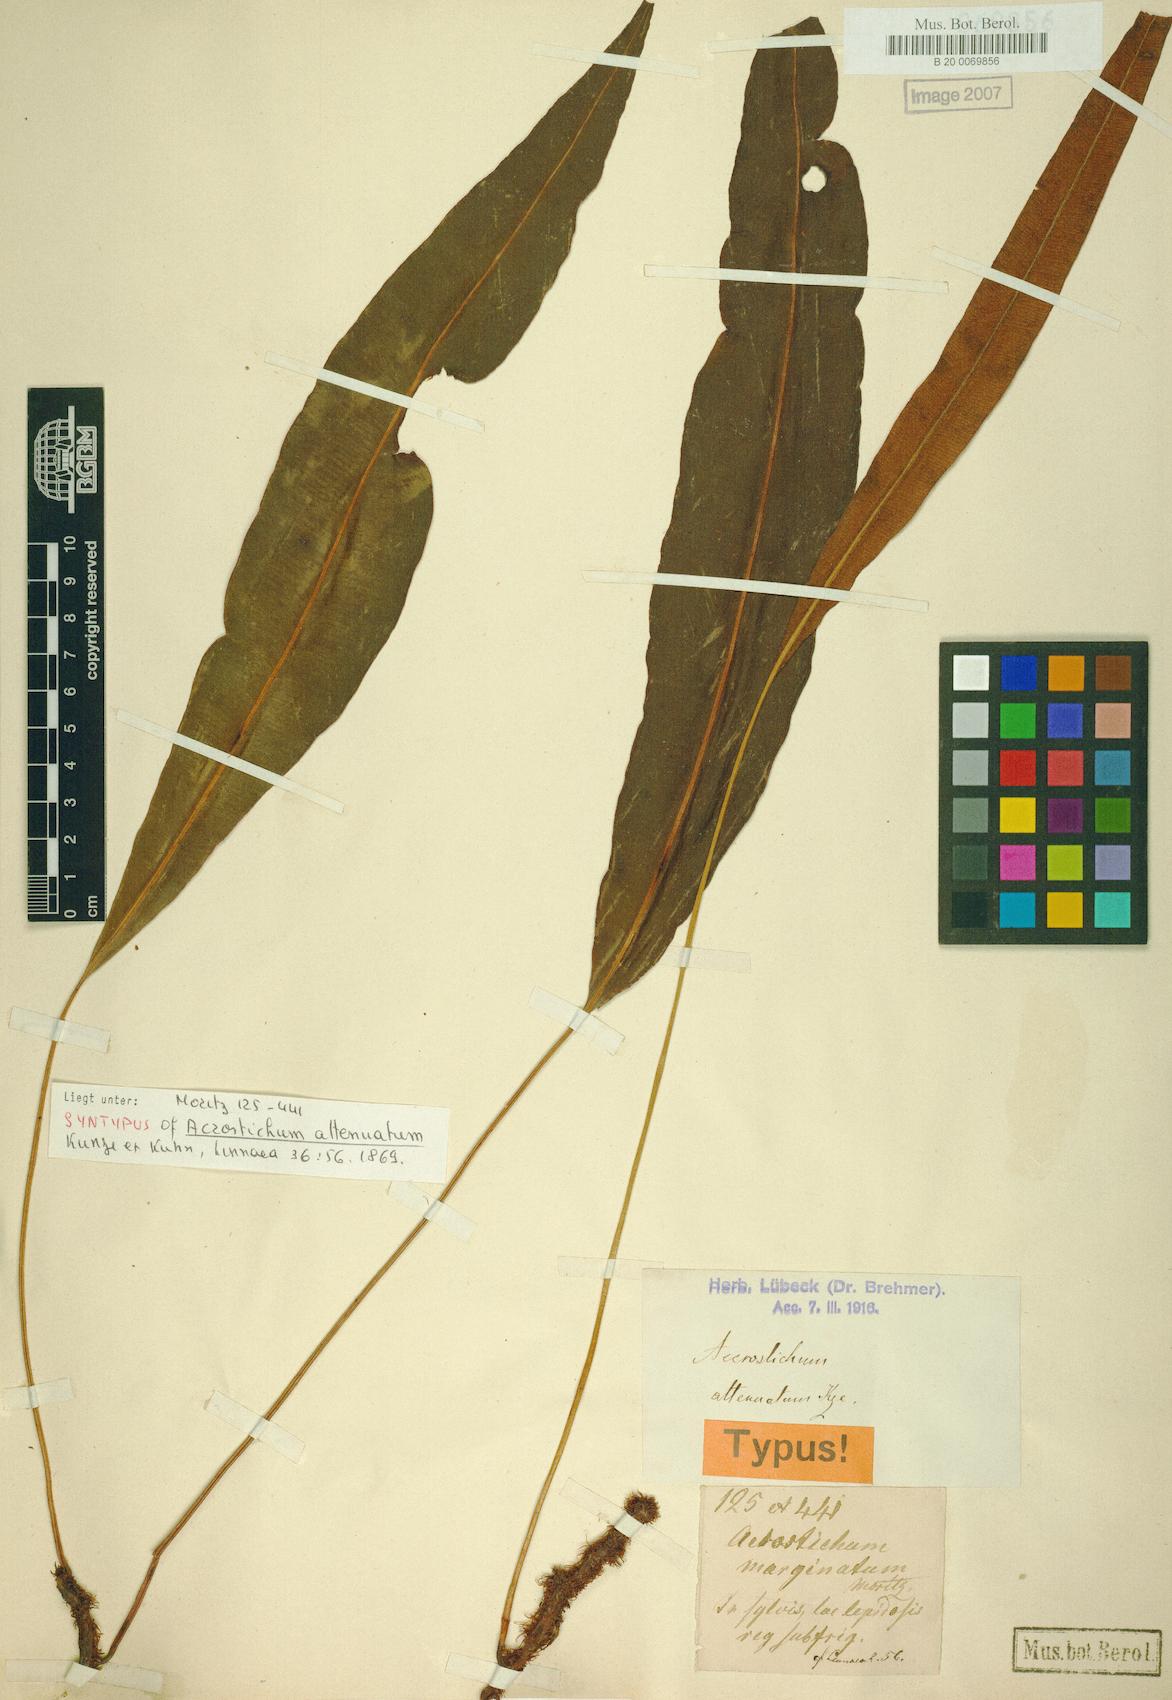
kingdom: Plantae
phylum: Tracheophyta
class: Polypodiopsida
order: Polypodiales
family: Dryopteridaceae
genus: Elaphoglossum
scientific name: Elaphoglossum hoffmannii
